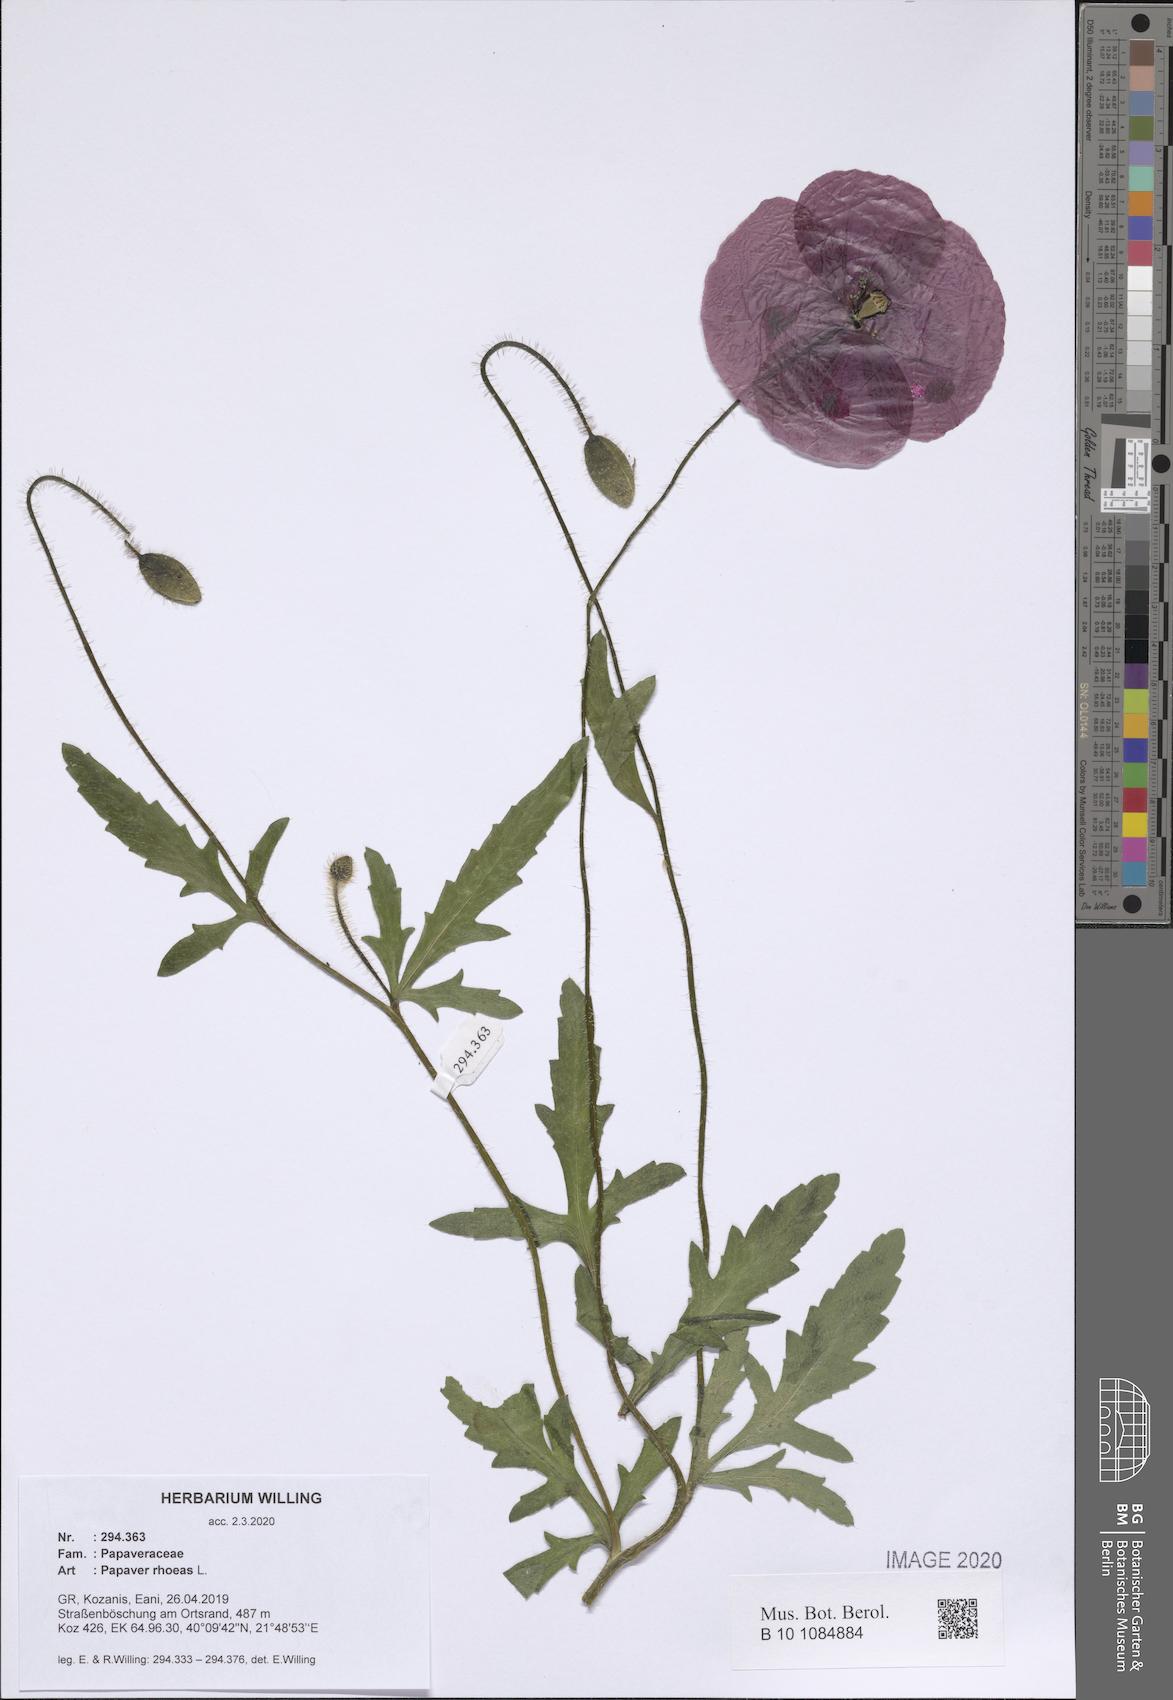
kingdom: Plantae
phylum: Tracheophyta
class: Magnoliopsida
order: Ranunculales
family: Papaveraceae
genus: Papaver
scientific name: Papaver rhoeas
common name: Corn poppy
